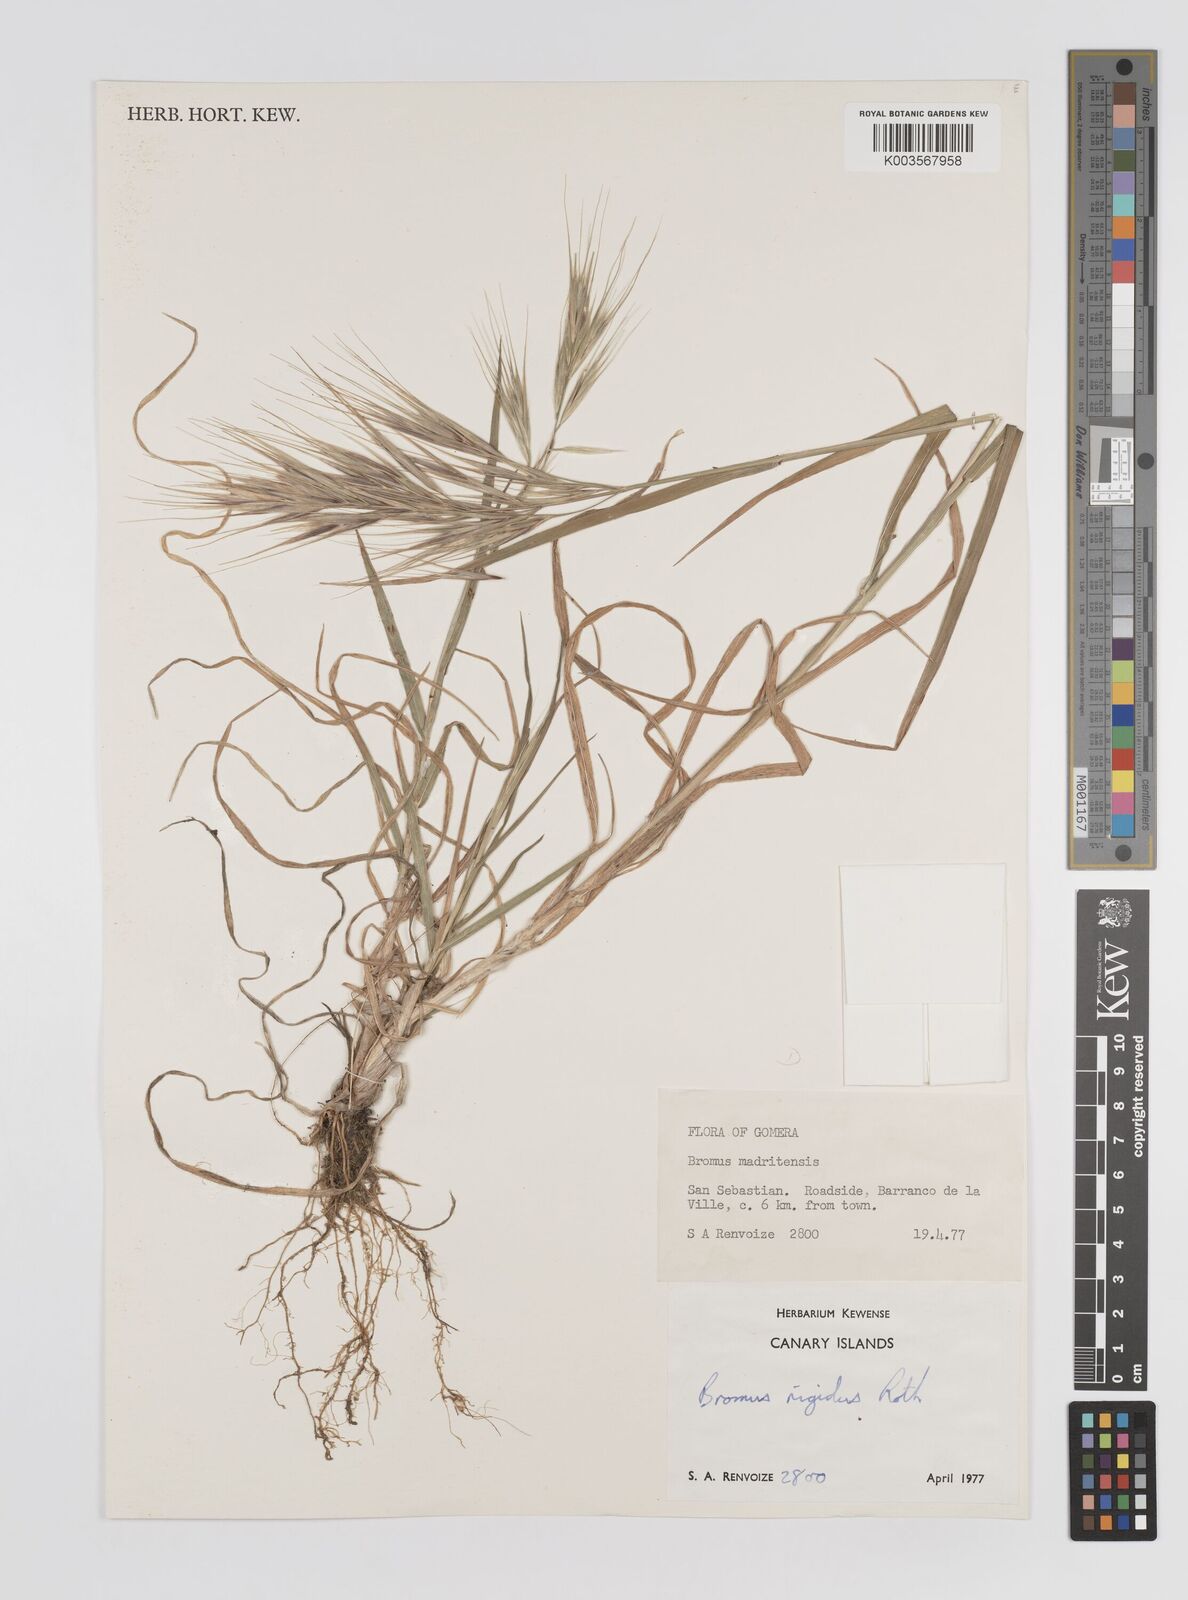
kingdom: Plantae
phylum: Tracheophyta
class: Liliopsida
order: Poales
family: Poaceae
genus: Bromus
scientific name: Bromus diandrus
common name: Ripgut brome
